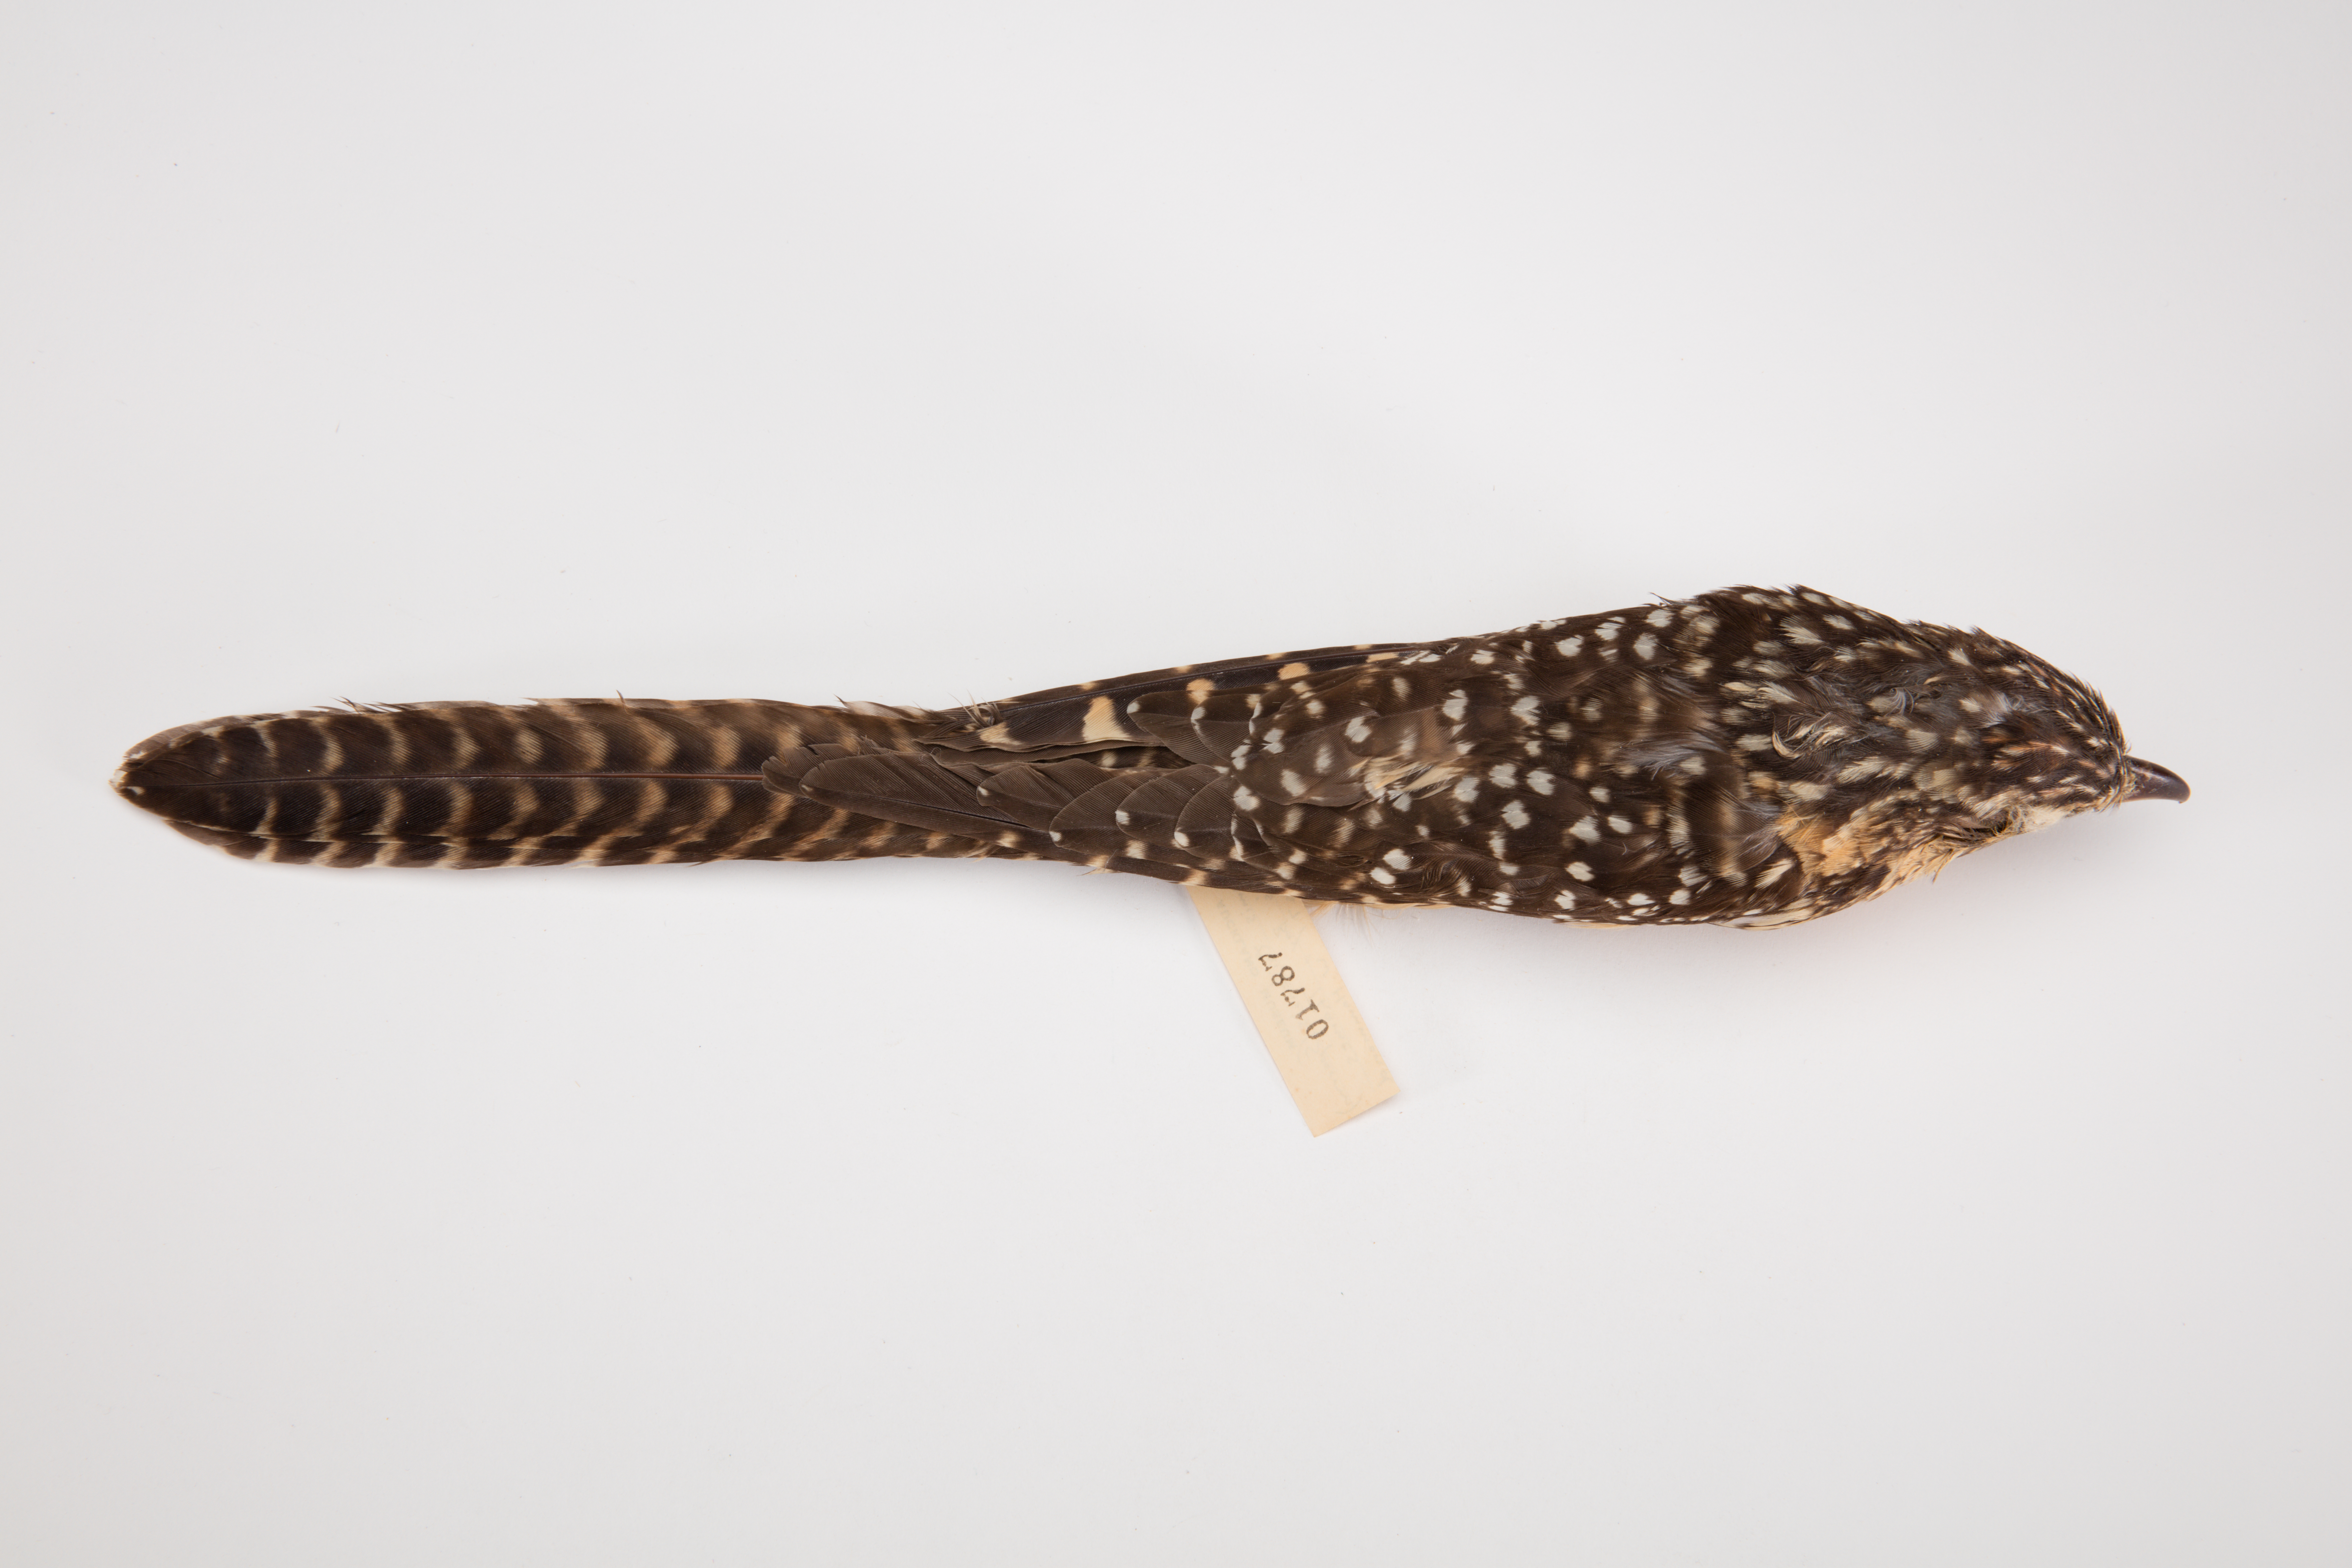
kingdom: Animalia
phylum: Chordata
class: Aves
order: Cuculiformes
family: Cuculidae
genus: Urodynamis
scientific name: Urodynamis taitensis
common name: Long-tailed koel
